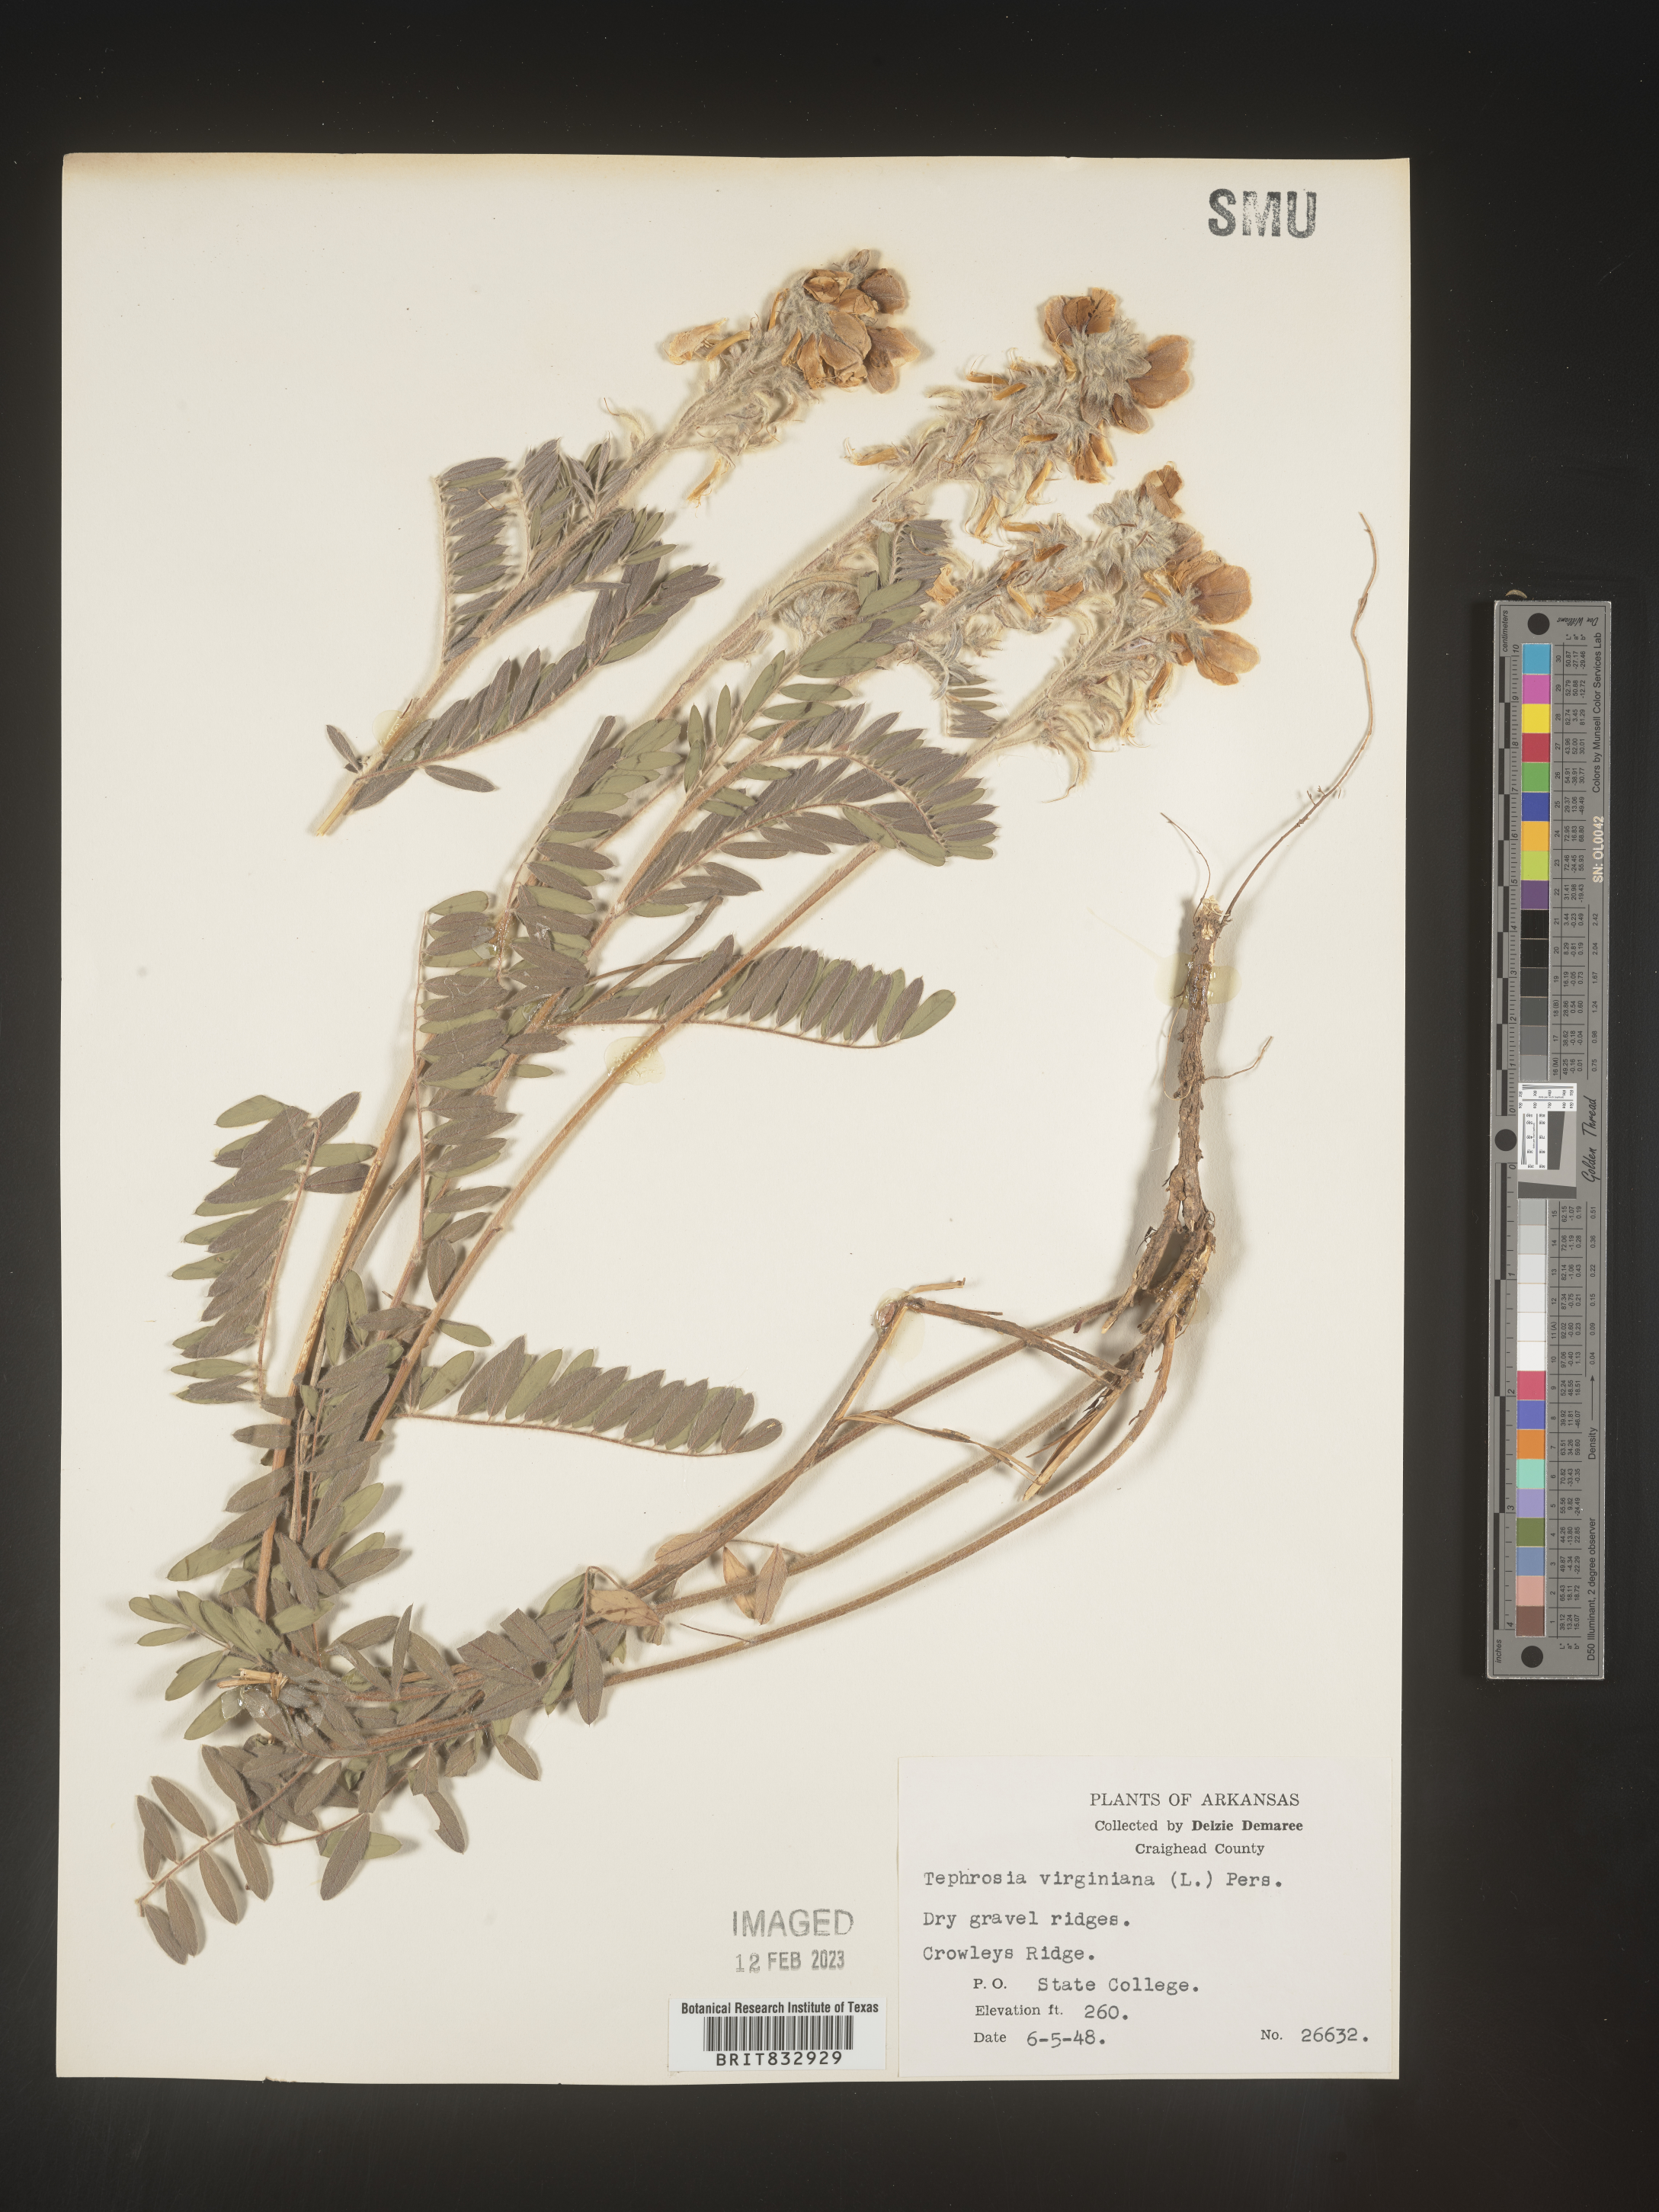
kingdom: Plantae
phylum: Tracheophyta
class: Magnoliopsida
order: Fabales
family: Fabaceae
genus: Tephrosia
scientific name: Tephrosia virginiana
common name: Rabbit-pea
